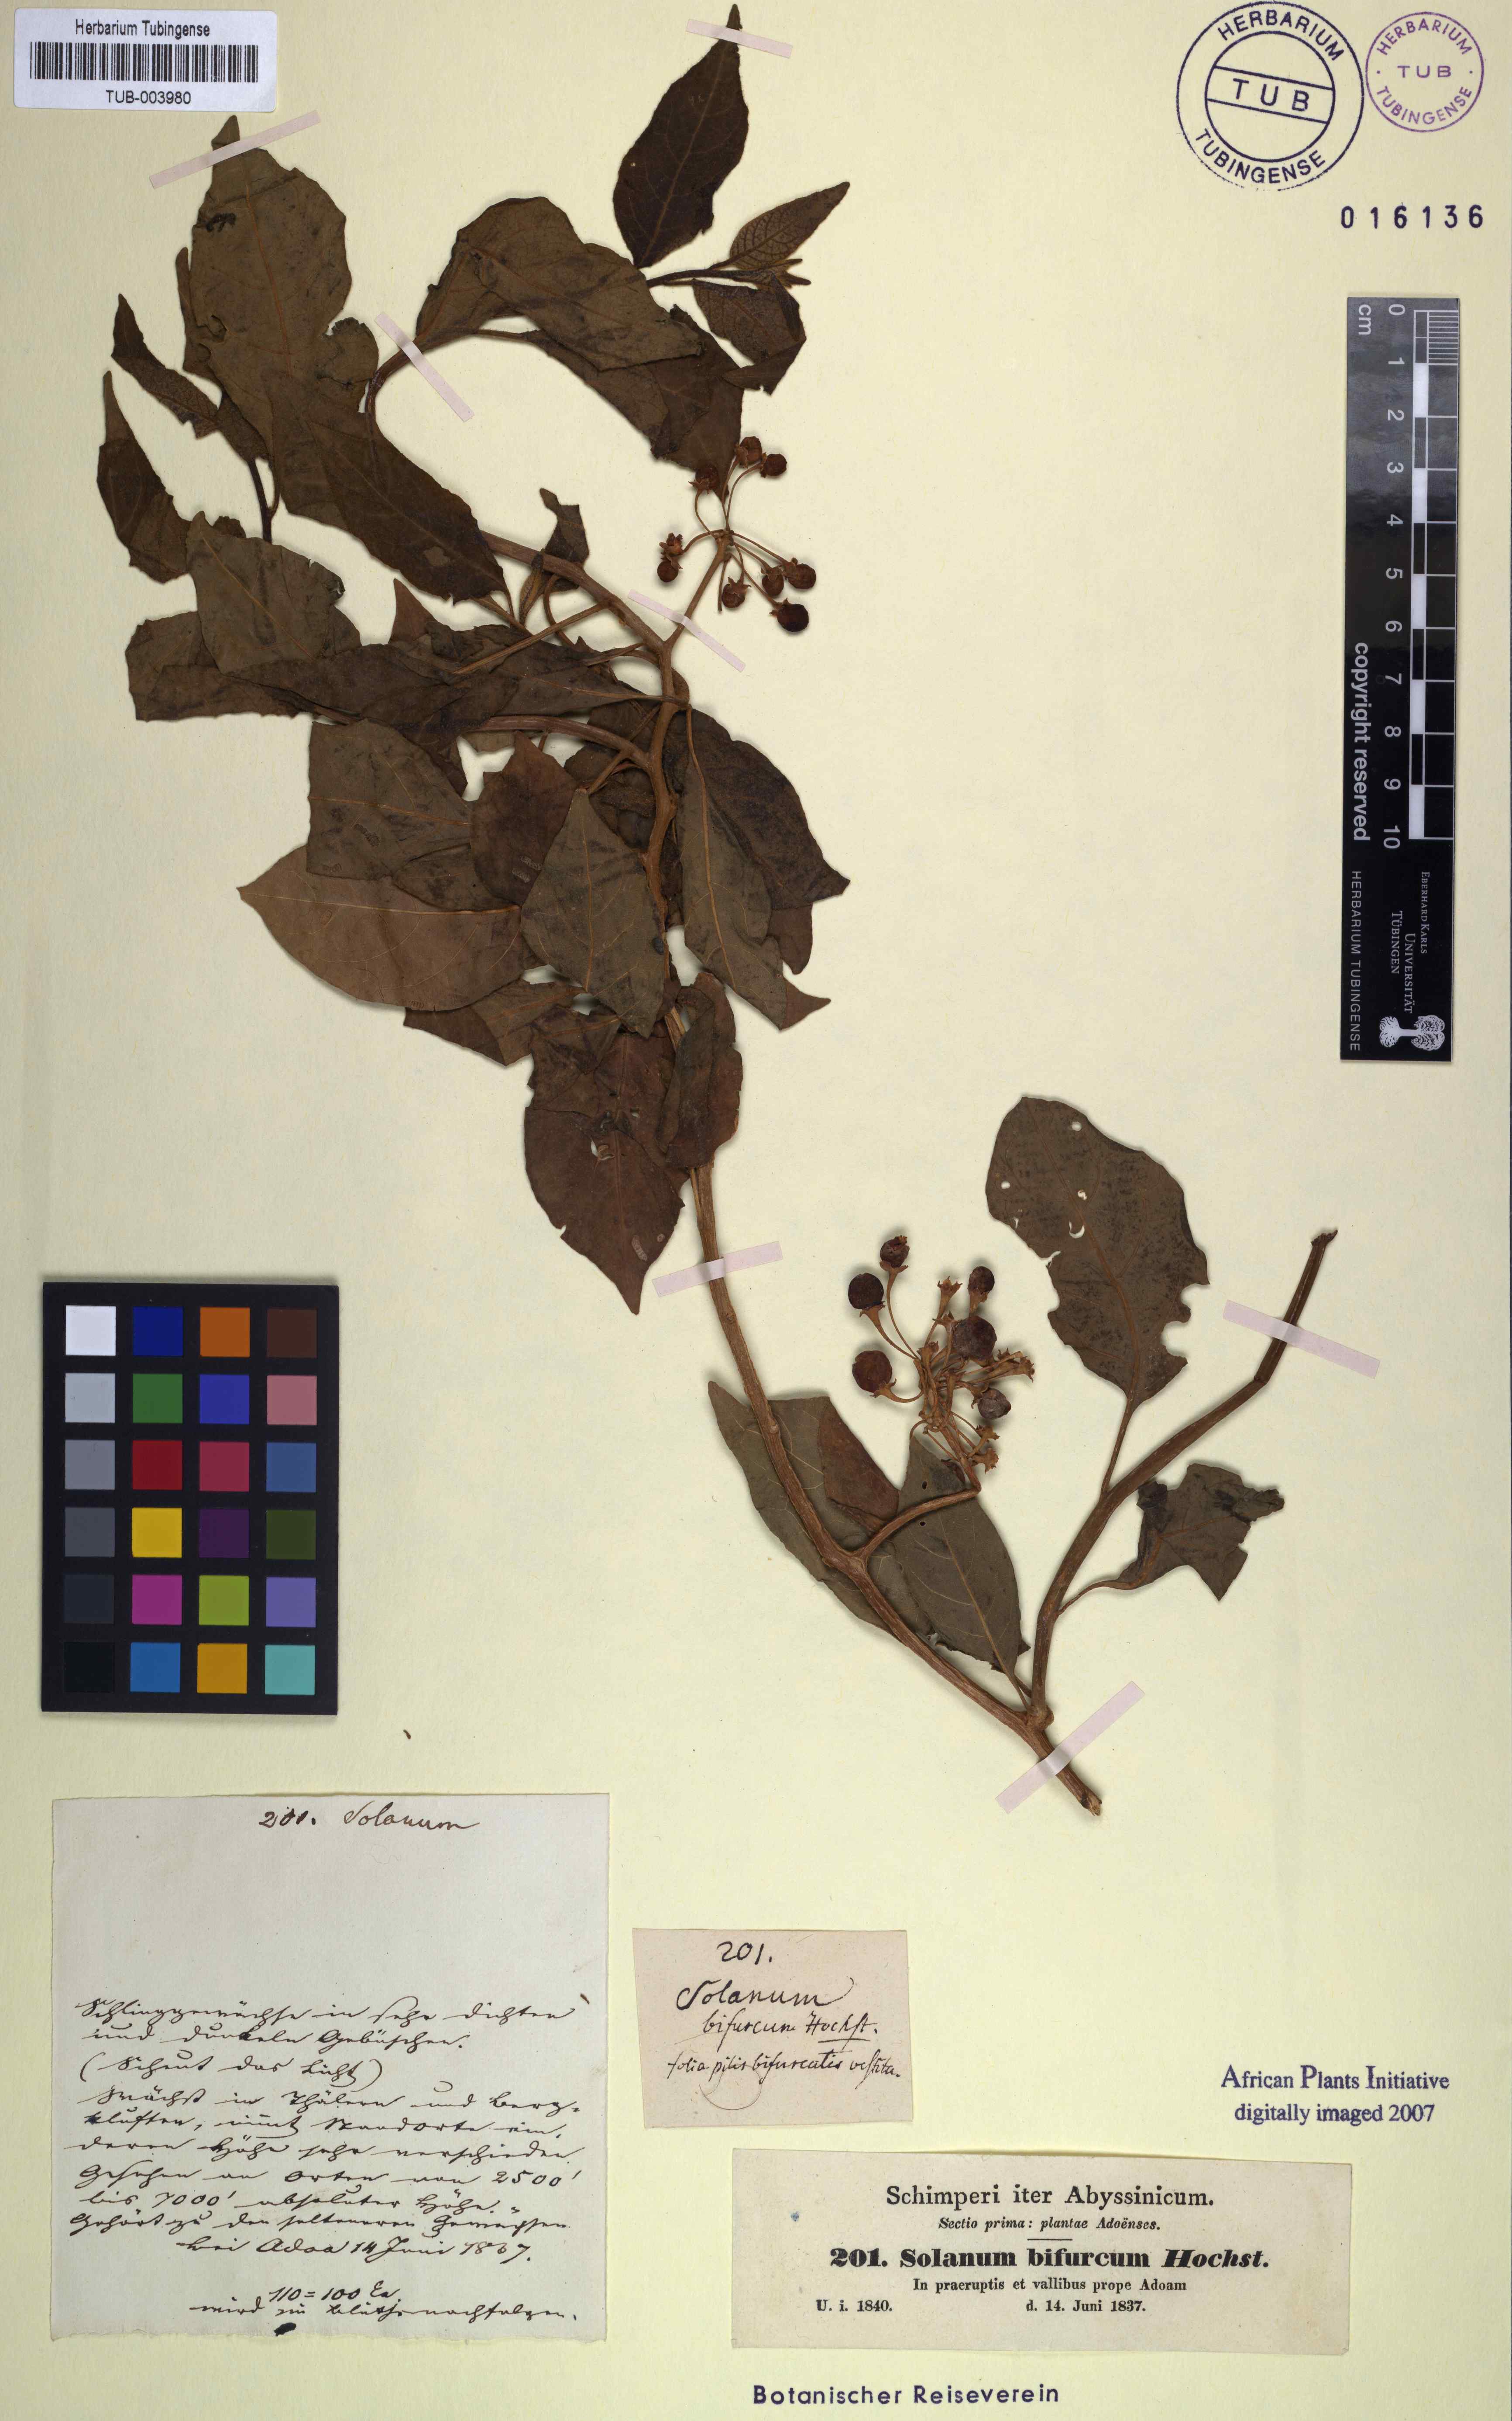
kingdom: Plantae
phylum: Tracheophyta
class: Magnoliopsida
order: Solanales
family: Solanaceae
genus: Solanum
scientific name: Solanum terminale
